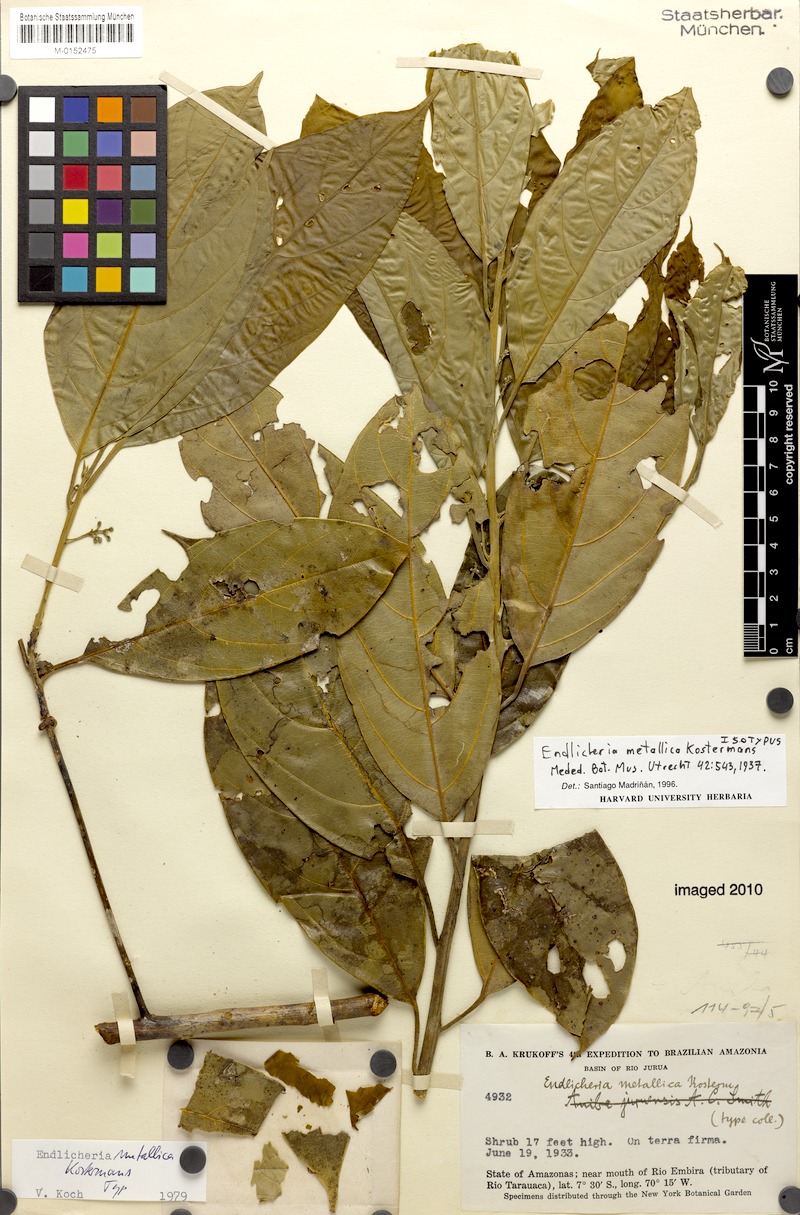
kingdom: Plantae
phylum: Tracheophyta
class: Magnoliopsida
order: Laurales
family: Lauraceae
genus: Endlicheria
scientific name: Endlicheria metallica
